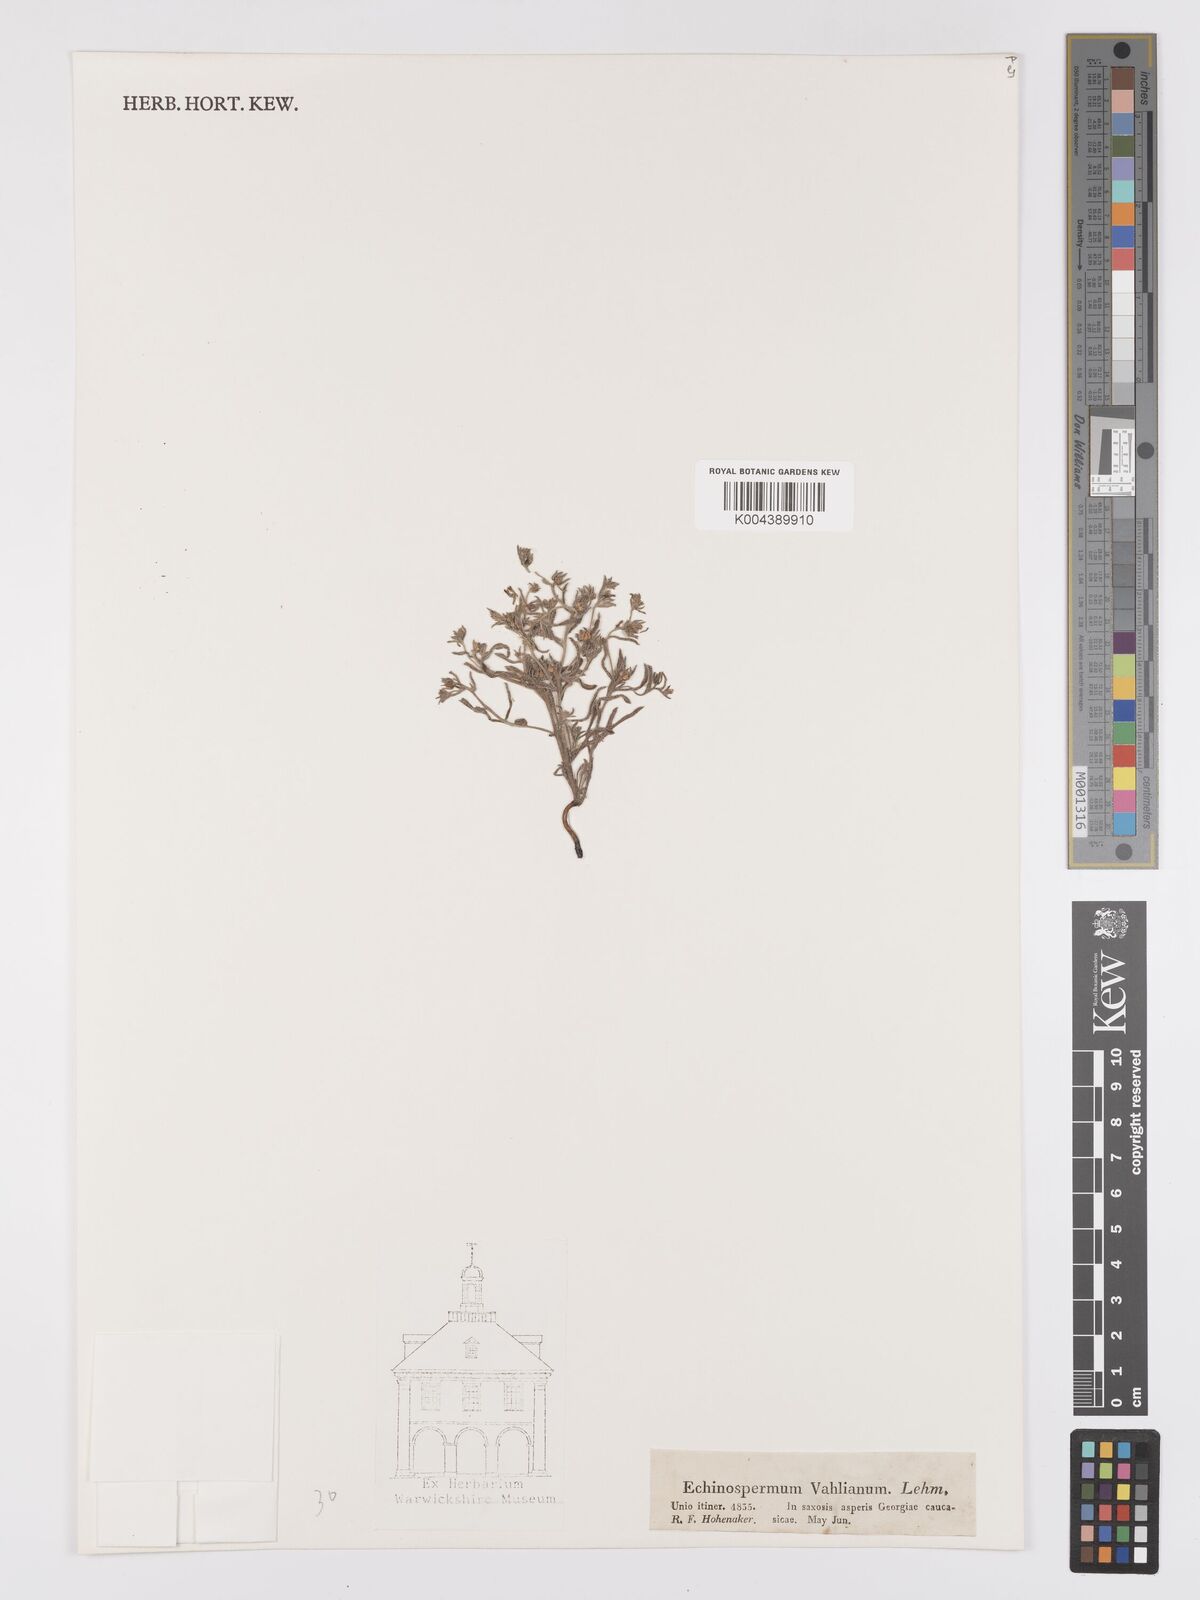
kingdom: Plantae
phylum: Tracheophyta
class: Magnoliopsida
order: Boraginales
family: Boraginaceae
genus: Lappula
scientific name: Lappula spinocarpos
